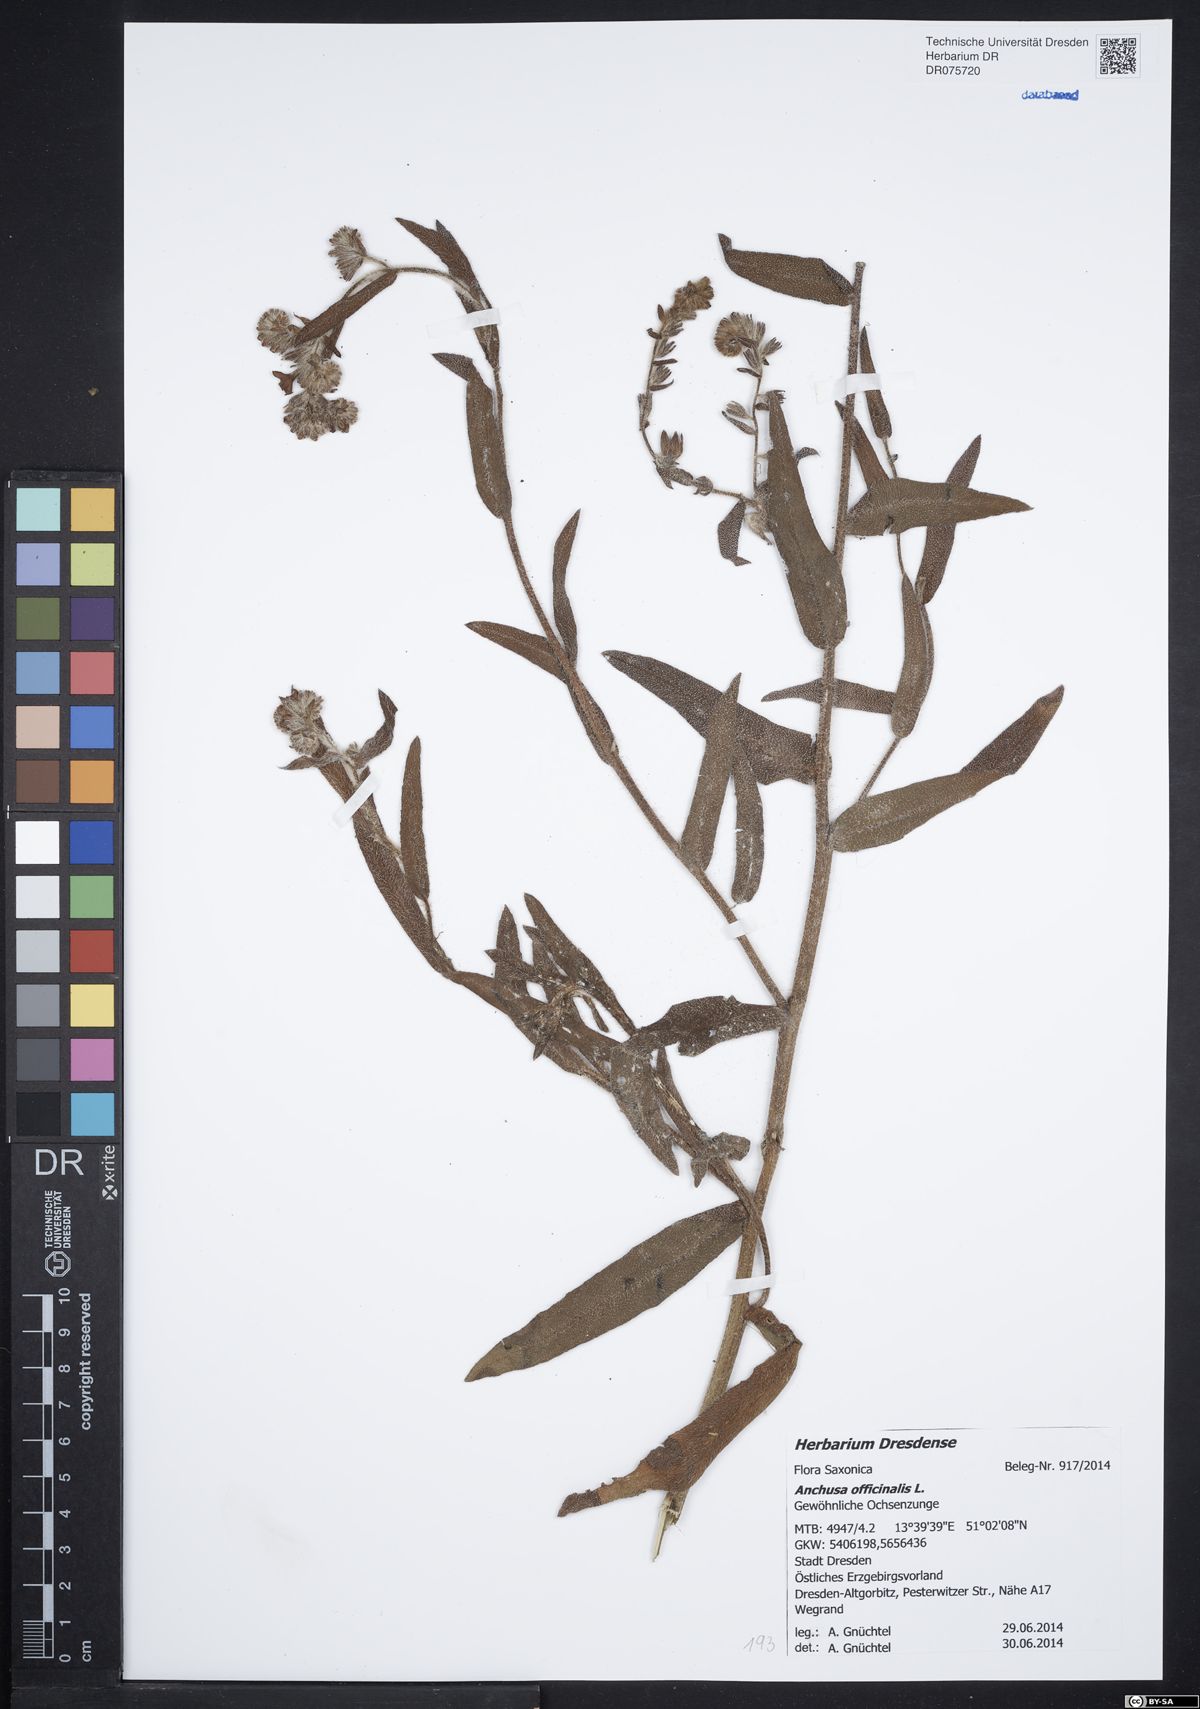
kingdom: Plantae
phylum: Tracheophyta
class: Magnoliopsida
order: Boraginales
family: Boraginaceae
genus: Anchusa
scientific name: Anchusa officinalis
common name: Alkanet
